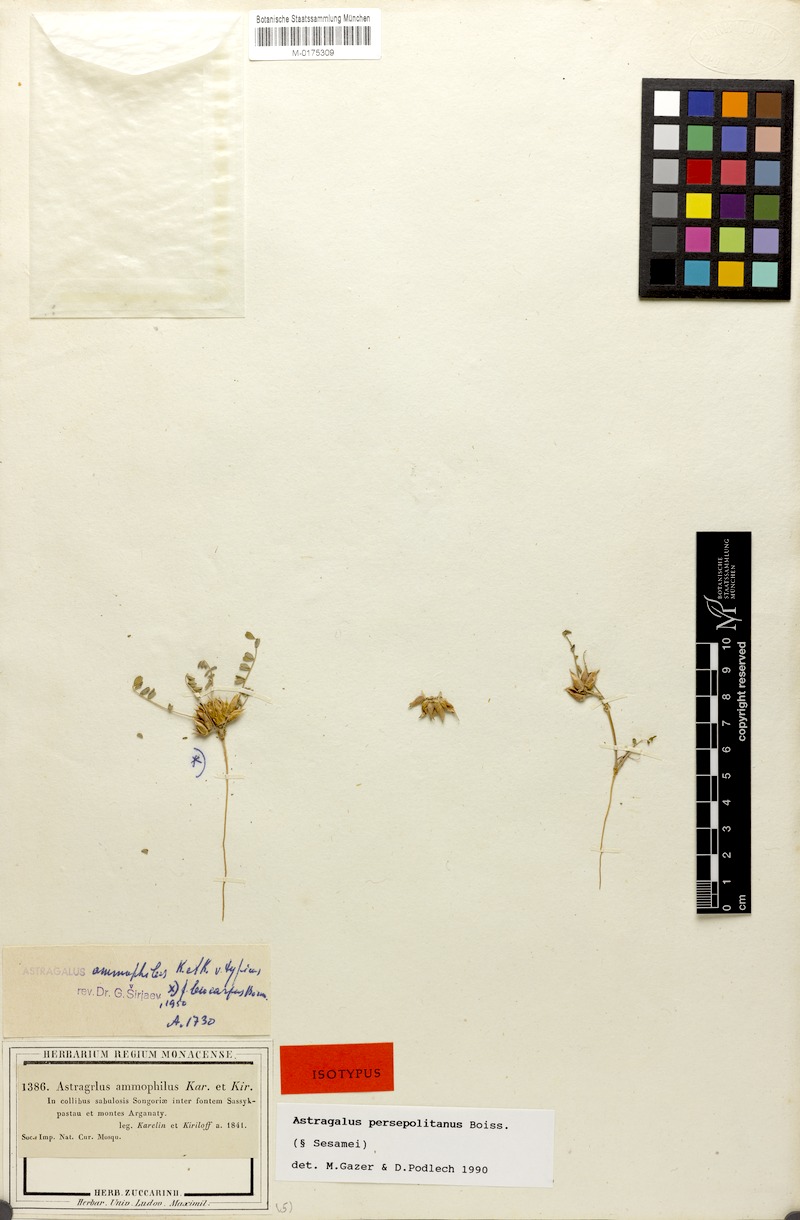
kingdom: Plantae
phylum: Tracheophyta
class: Magnoliopsida
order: Fabales
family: Fabaceae
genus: Astragalus
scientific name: Astragalus ammophilus
